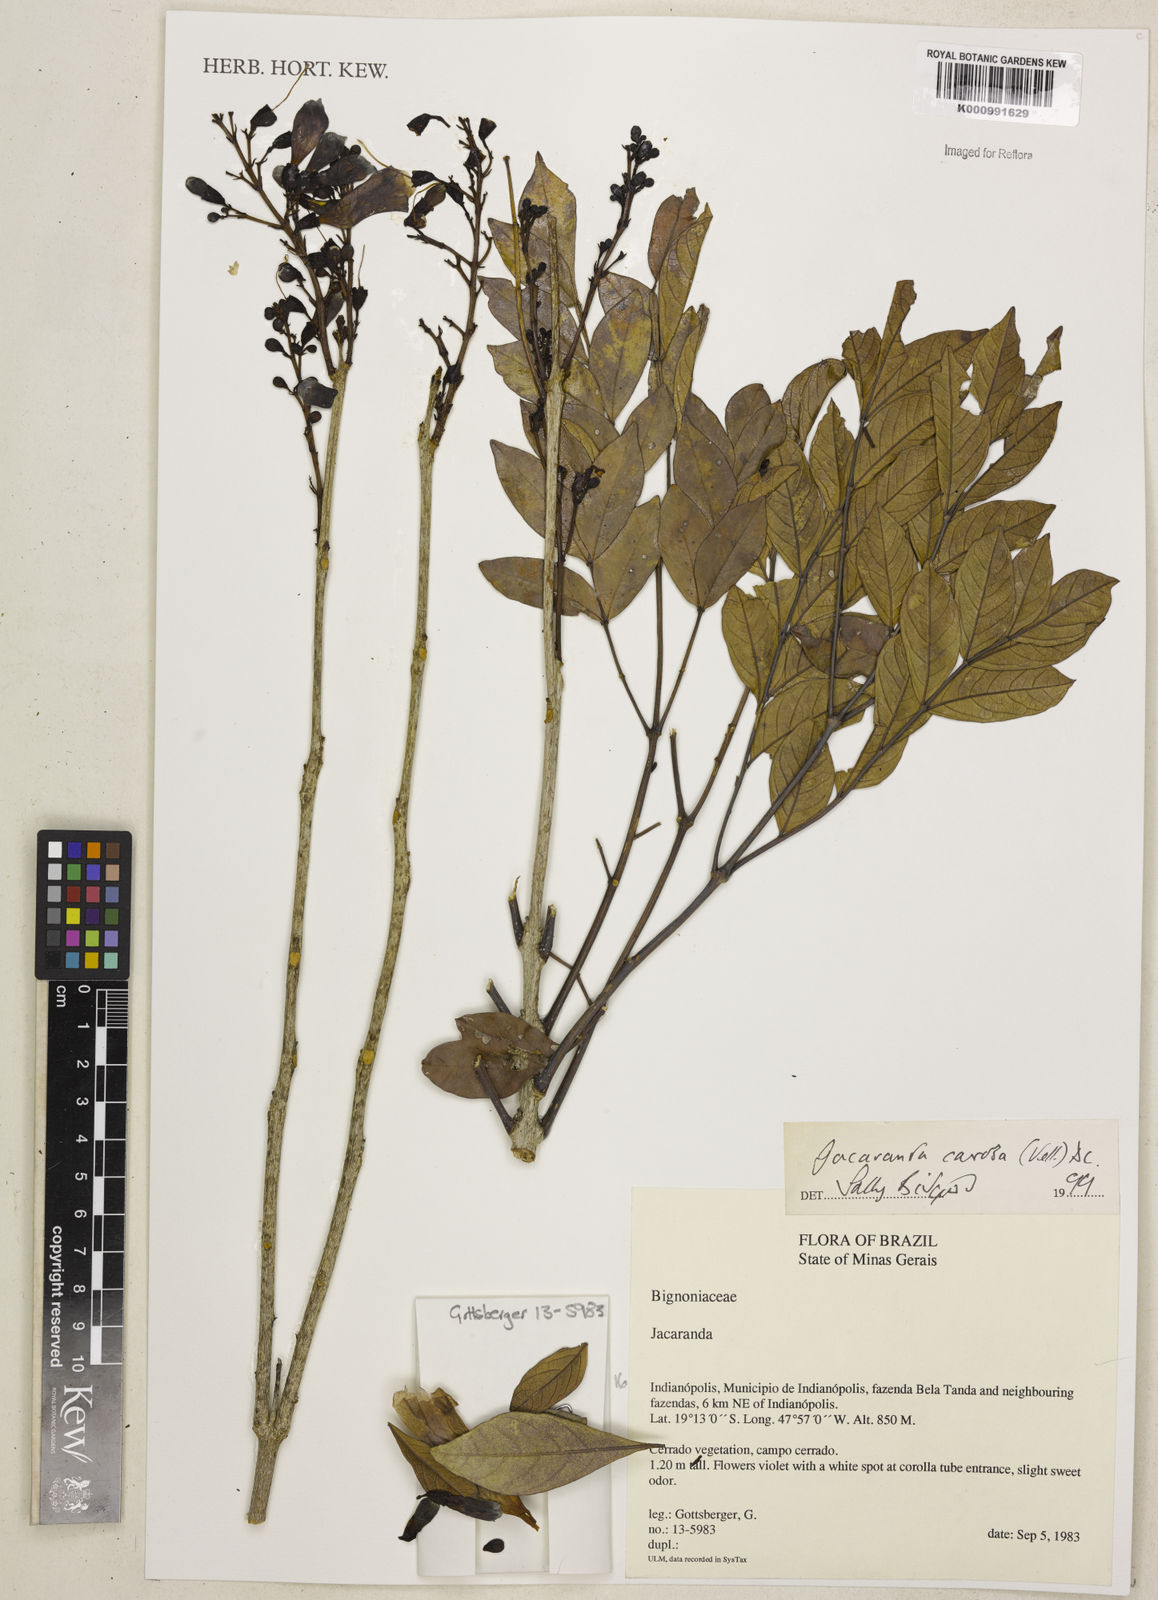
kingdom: Plantae
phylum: Tracheophyta
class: Magnoliopsida
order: Lamiales
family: Bignoniaceae
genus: Jacaranda
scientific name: Jacaranda caroba
